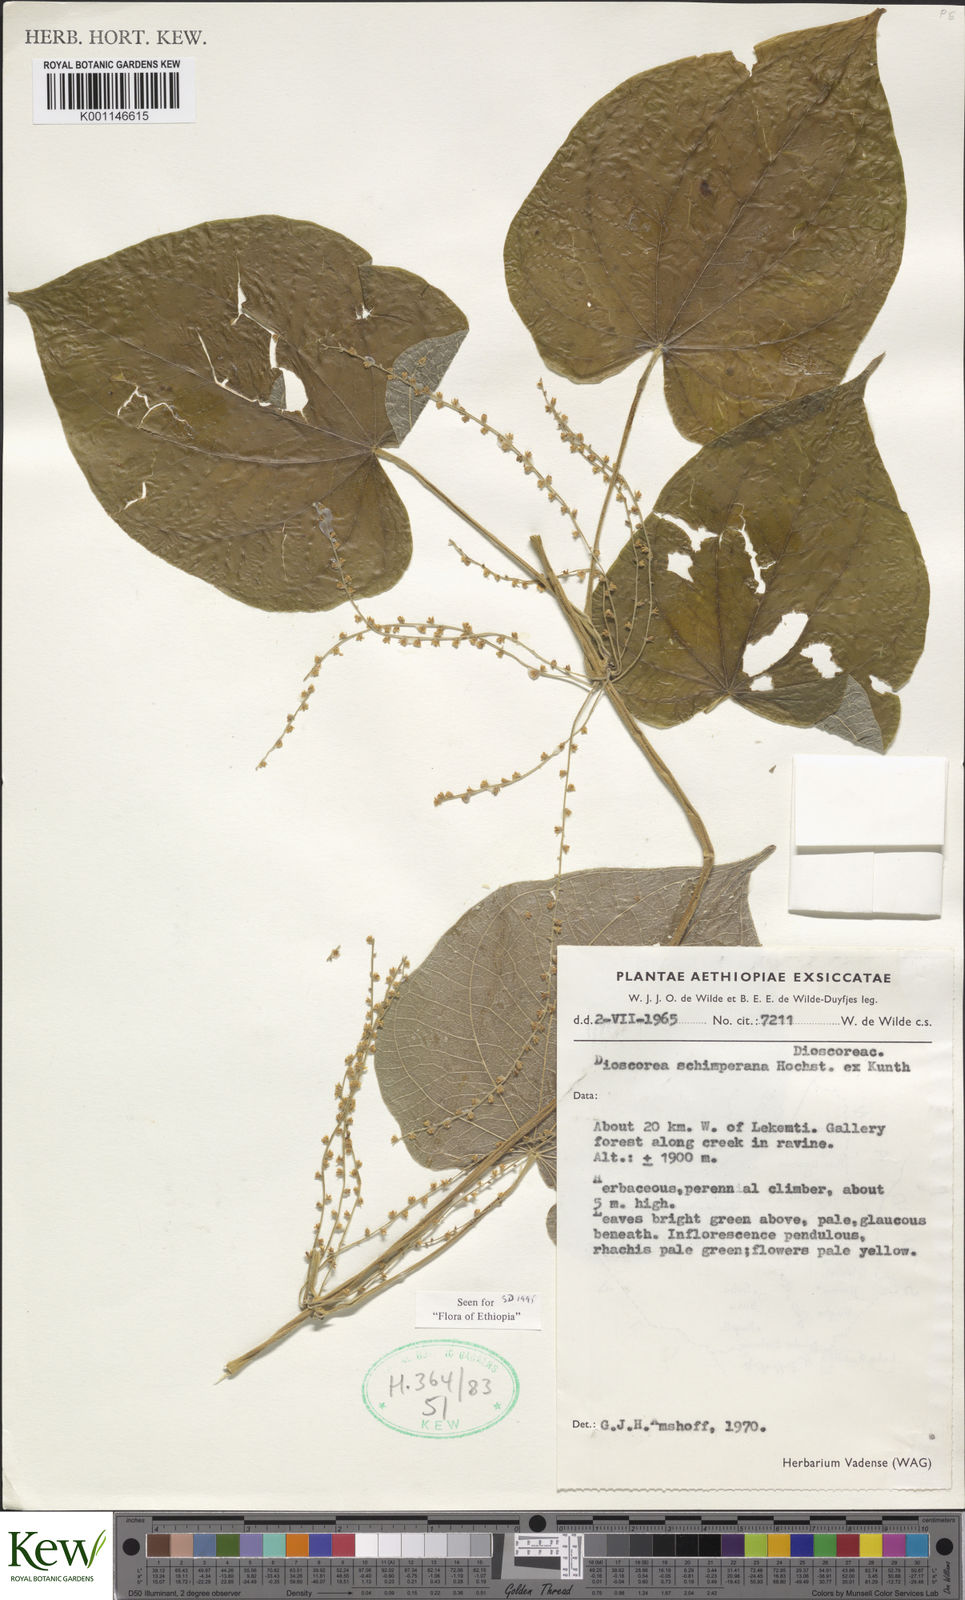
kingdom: Plantae
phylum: Tracheophyta
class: Liliopsida
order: Dioscoreales
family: Dioscoreaceae
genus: Dioscorea
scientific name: Dioscorea schimperiana
